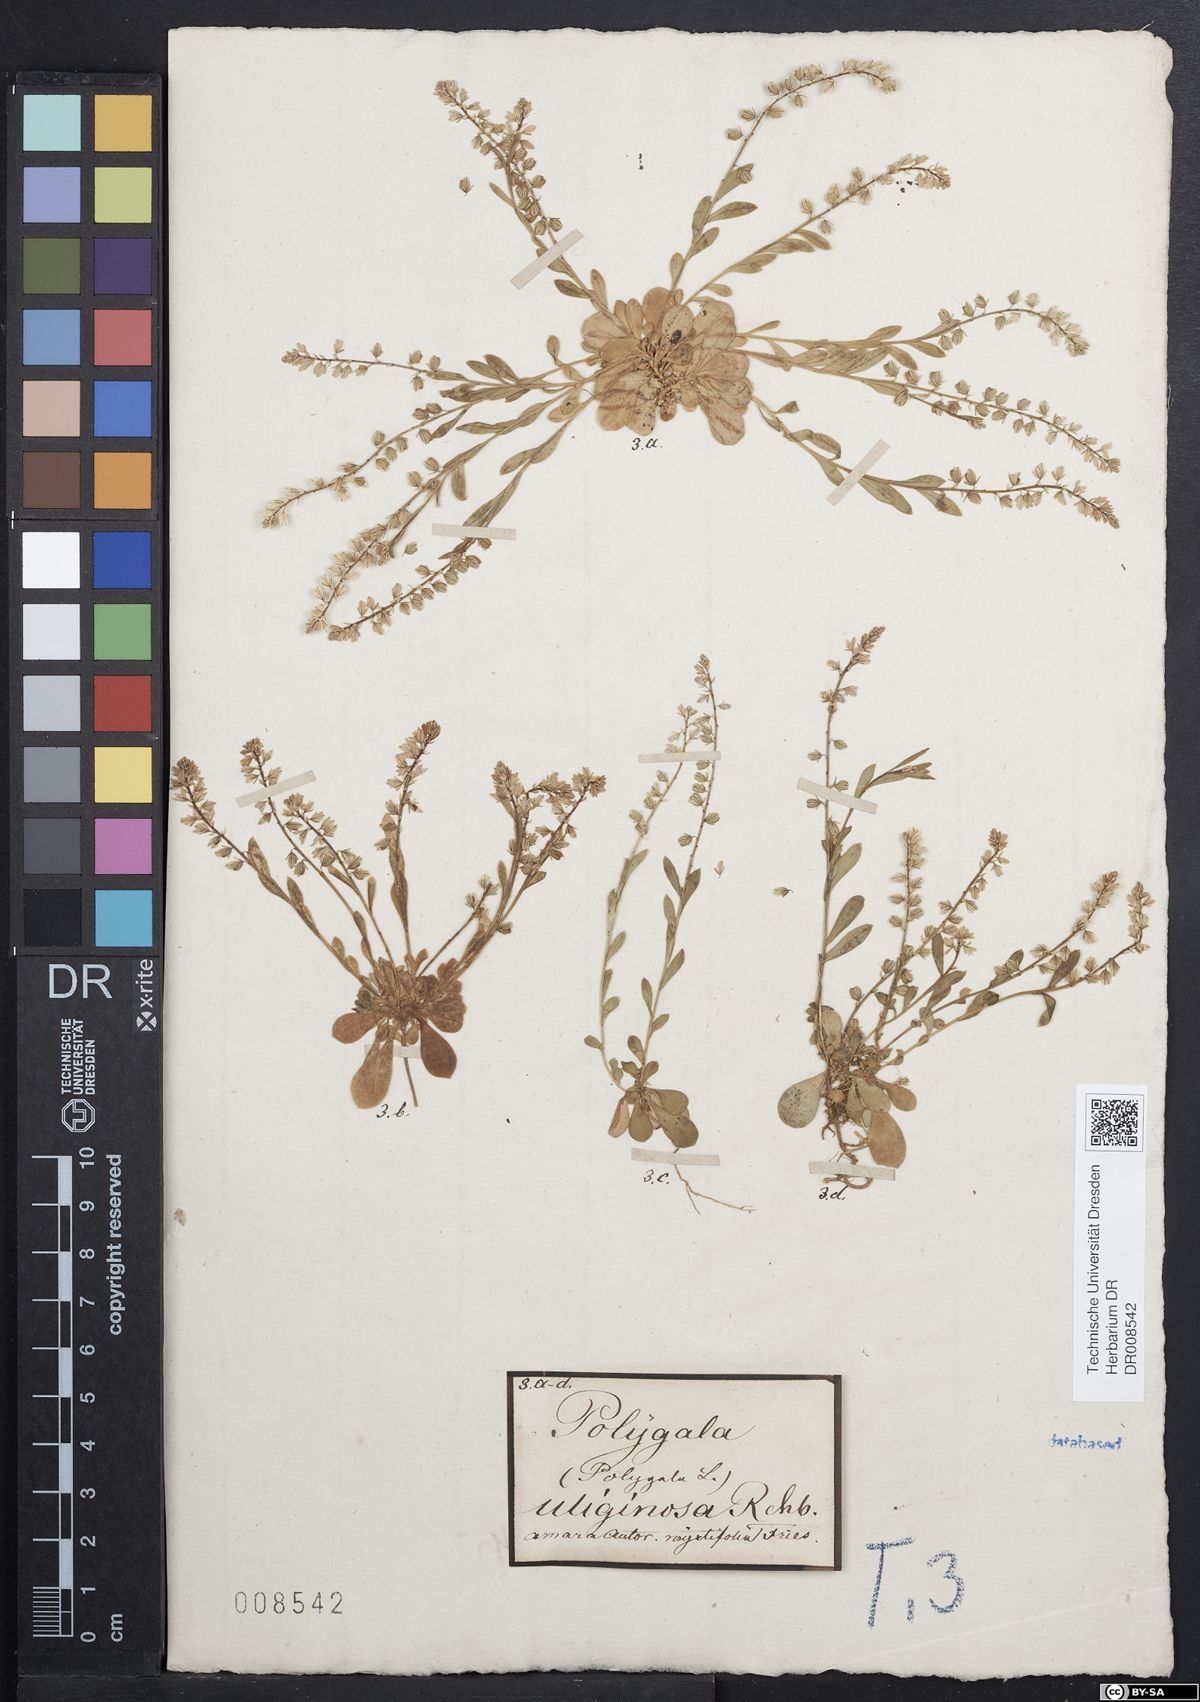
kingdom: Plantae
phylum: Tracheophyta
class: Magnoliopsida
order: Fabales
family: Polygalaceae
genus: Polygala
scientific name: Polygala amarella
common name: Dwarf milkwort
